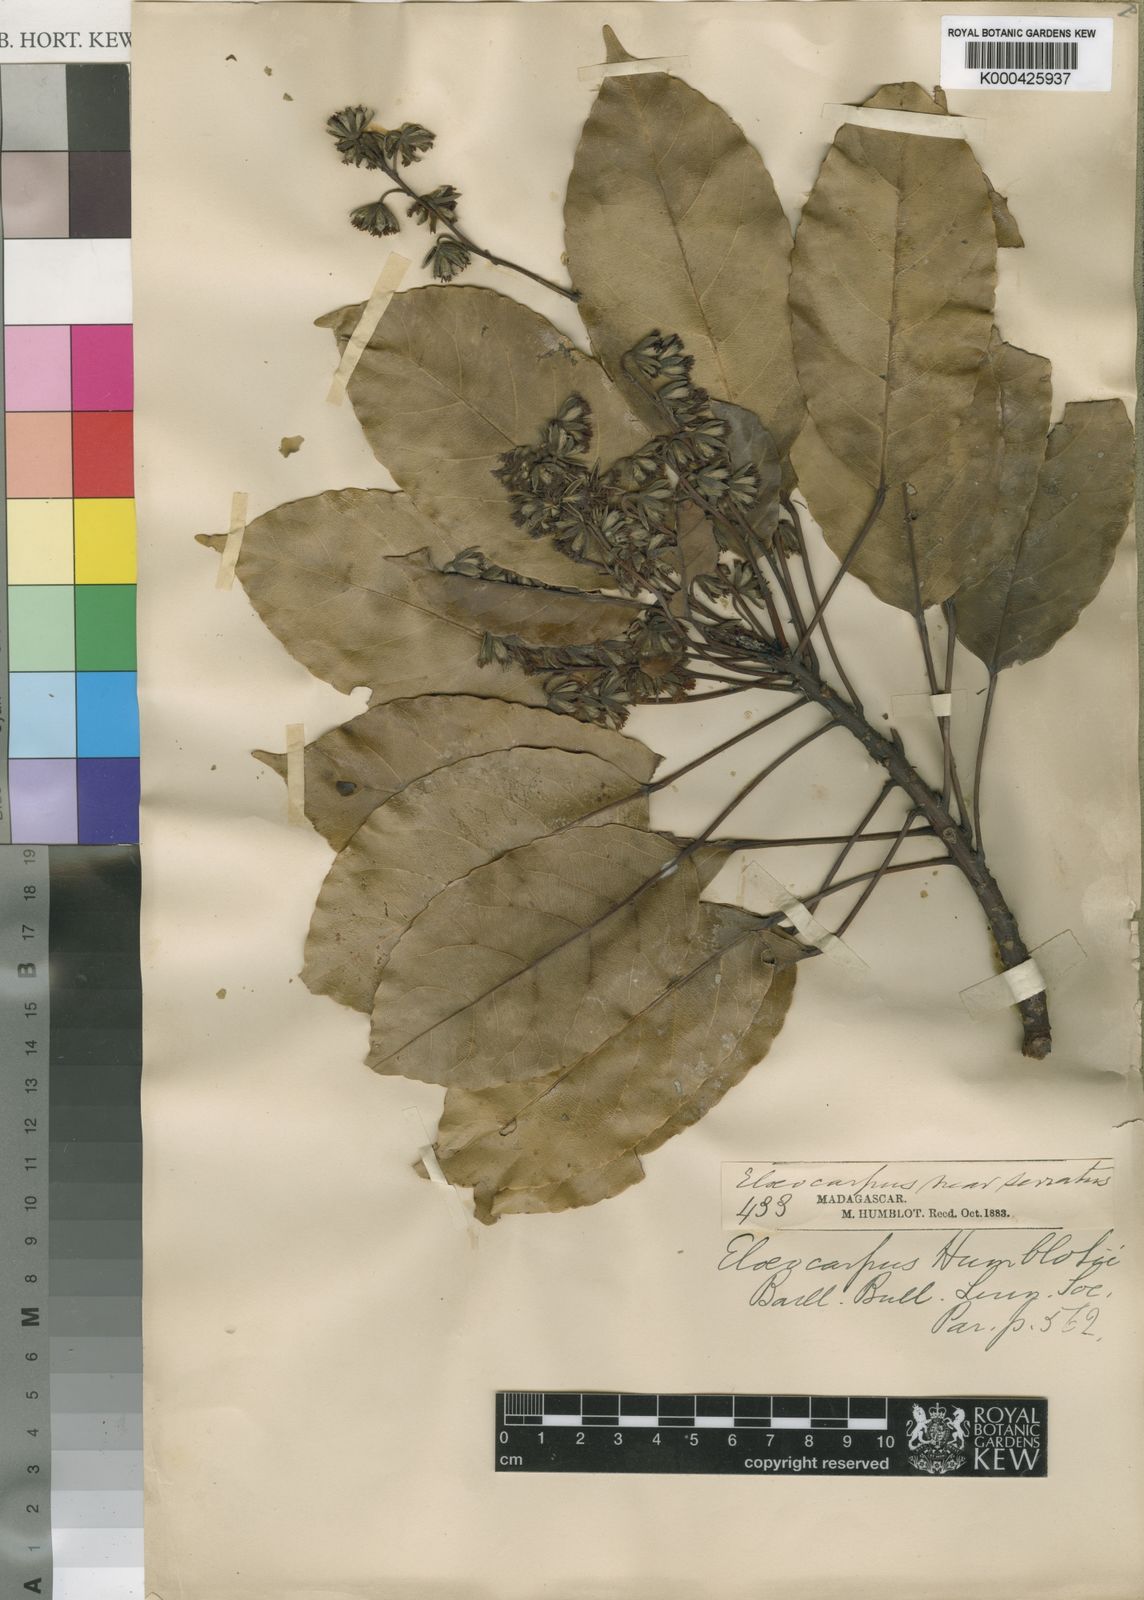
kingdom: Plantae
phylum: Tracheophyta
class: Magnoliopsida
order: Oxalidales
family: Elaeocarpaceae
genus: Elaeocarpus
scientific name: Elaeocarpus subserratus
